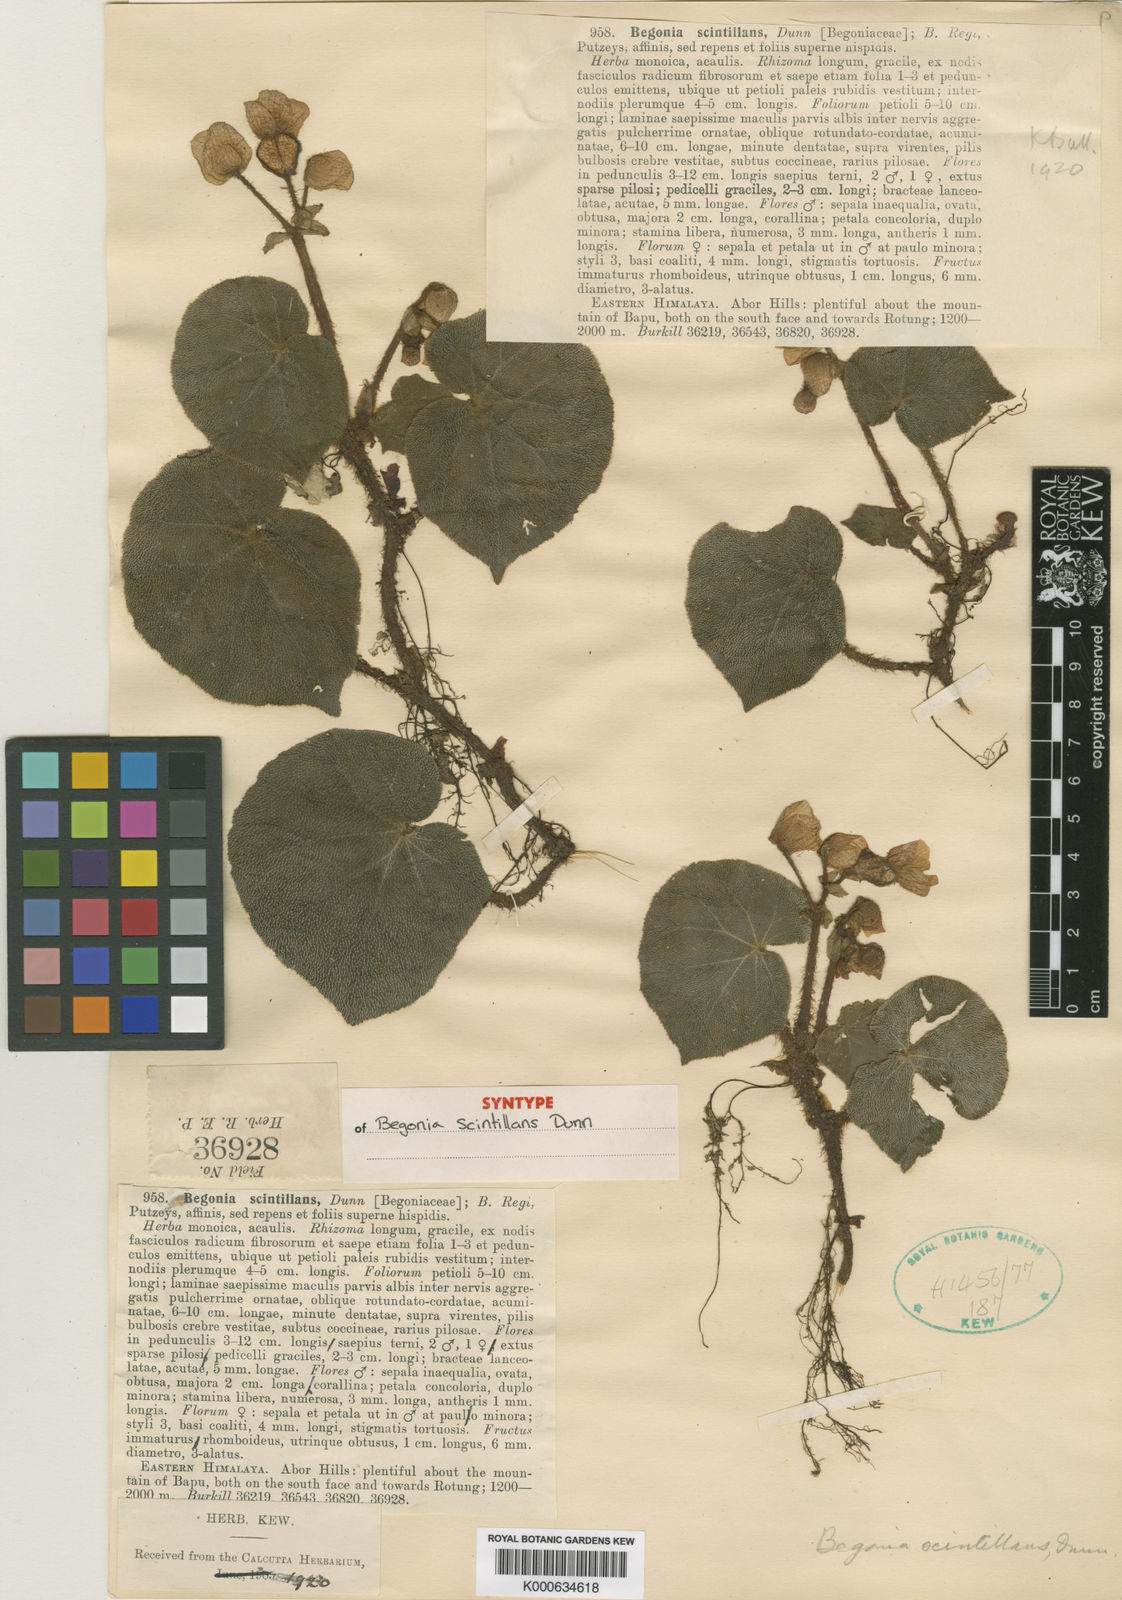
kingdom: Plantae
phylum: Tracheophyta
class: Magnoliopsida
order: Cucurbitales
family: Begoniaceae
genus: Begonia
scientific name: Begonia scintillans
